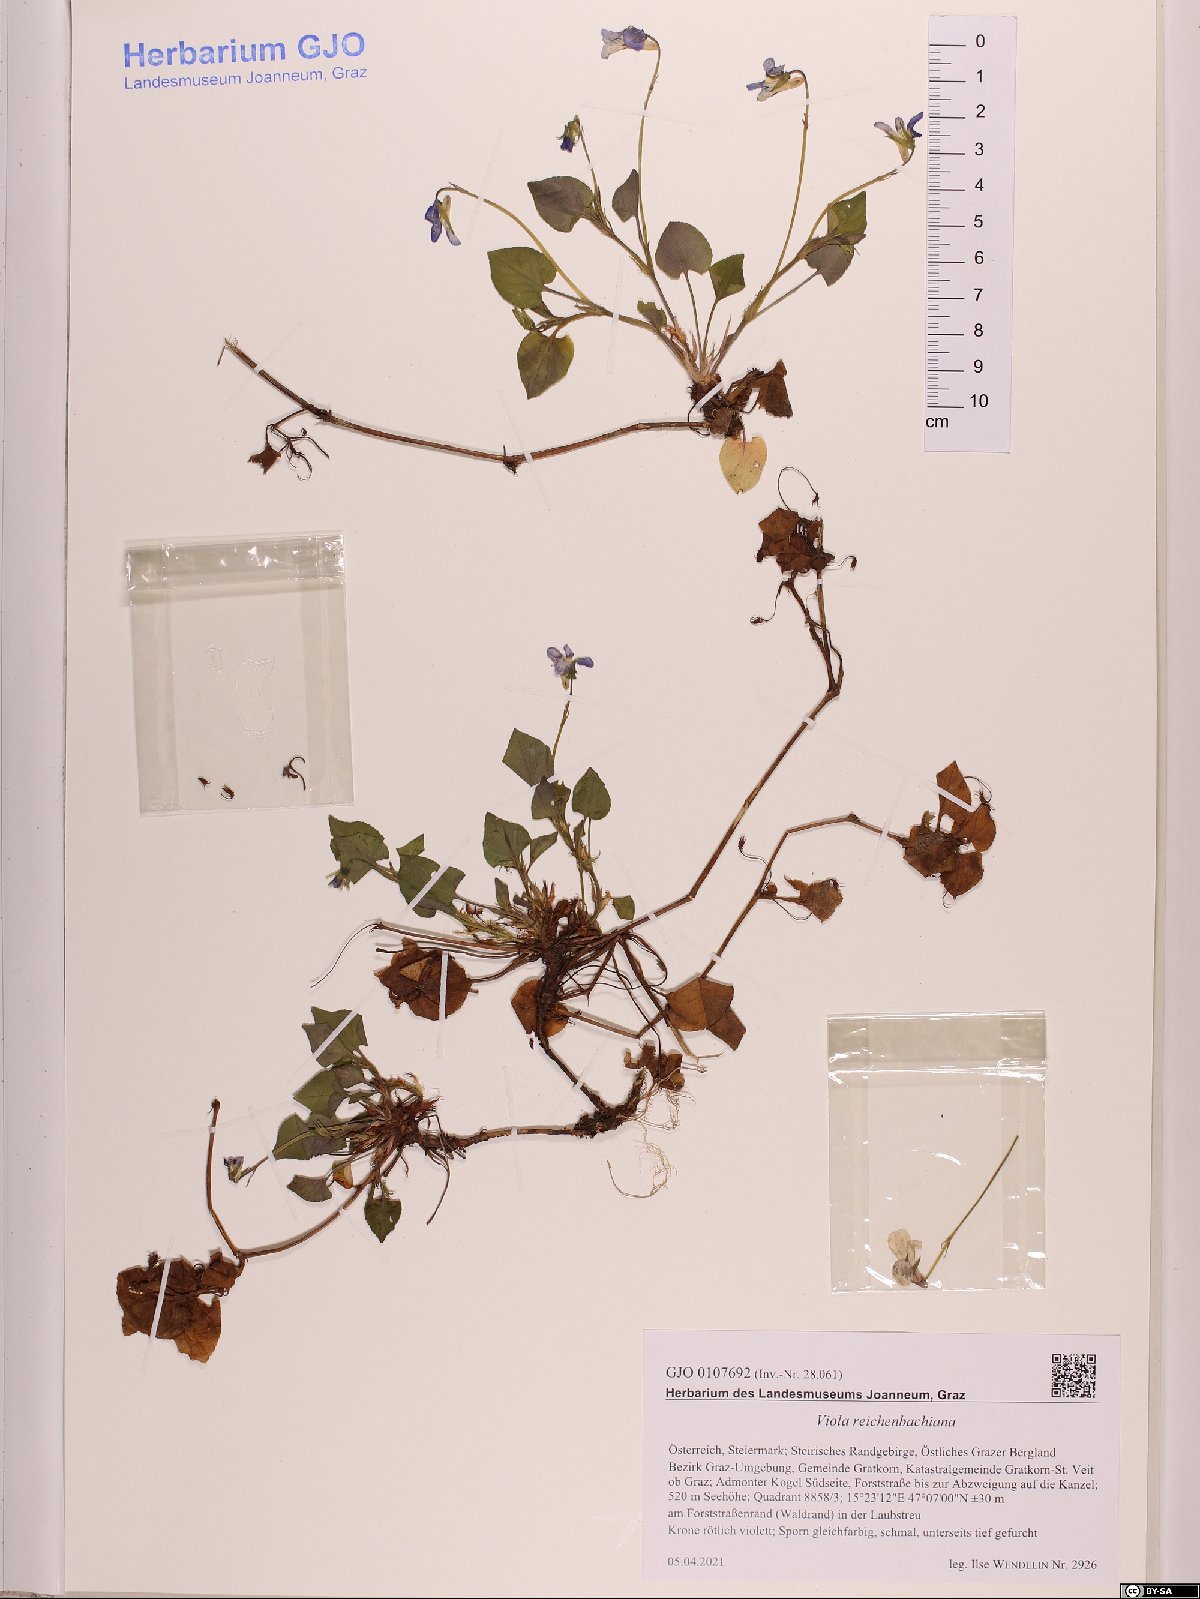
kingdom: Plantae
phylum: Tracheophyta
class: Magnoliopsida
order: Malpighiales
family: Violaceae
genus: Viola
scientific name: Viola reichenbachiana
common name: Early dog-violet
